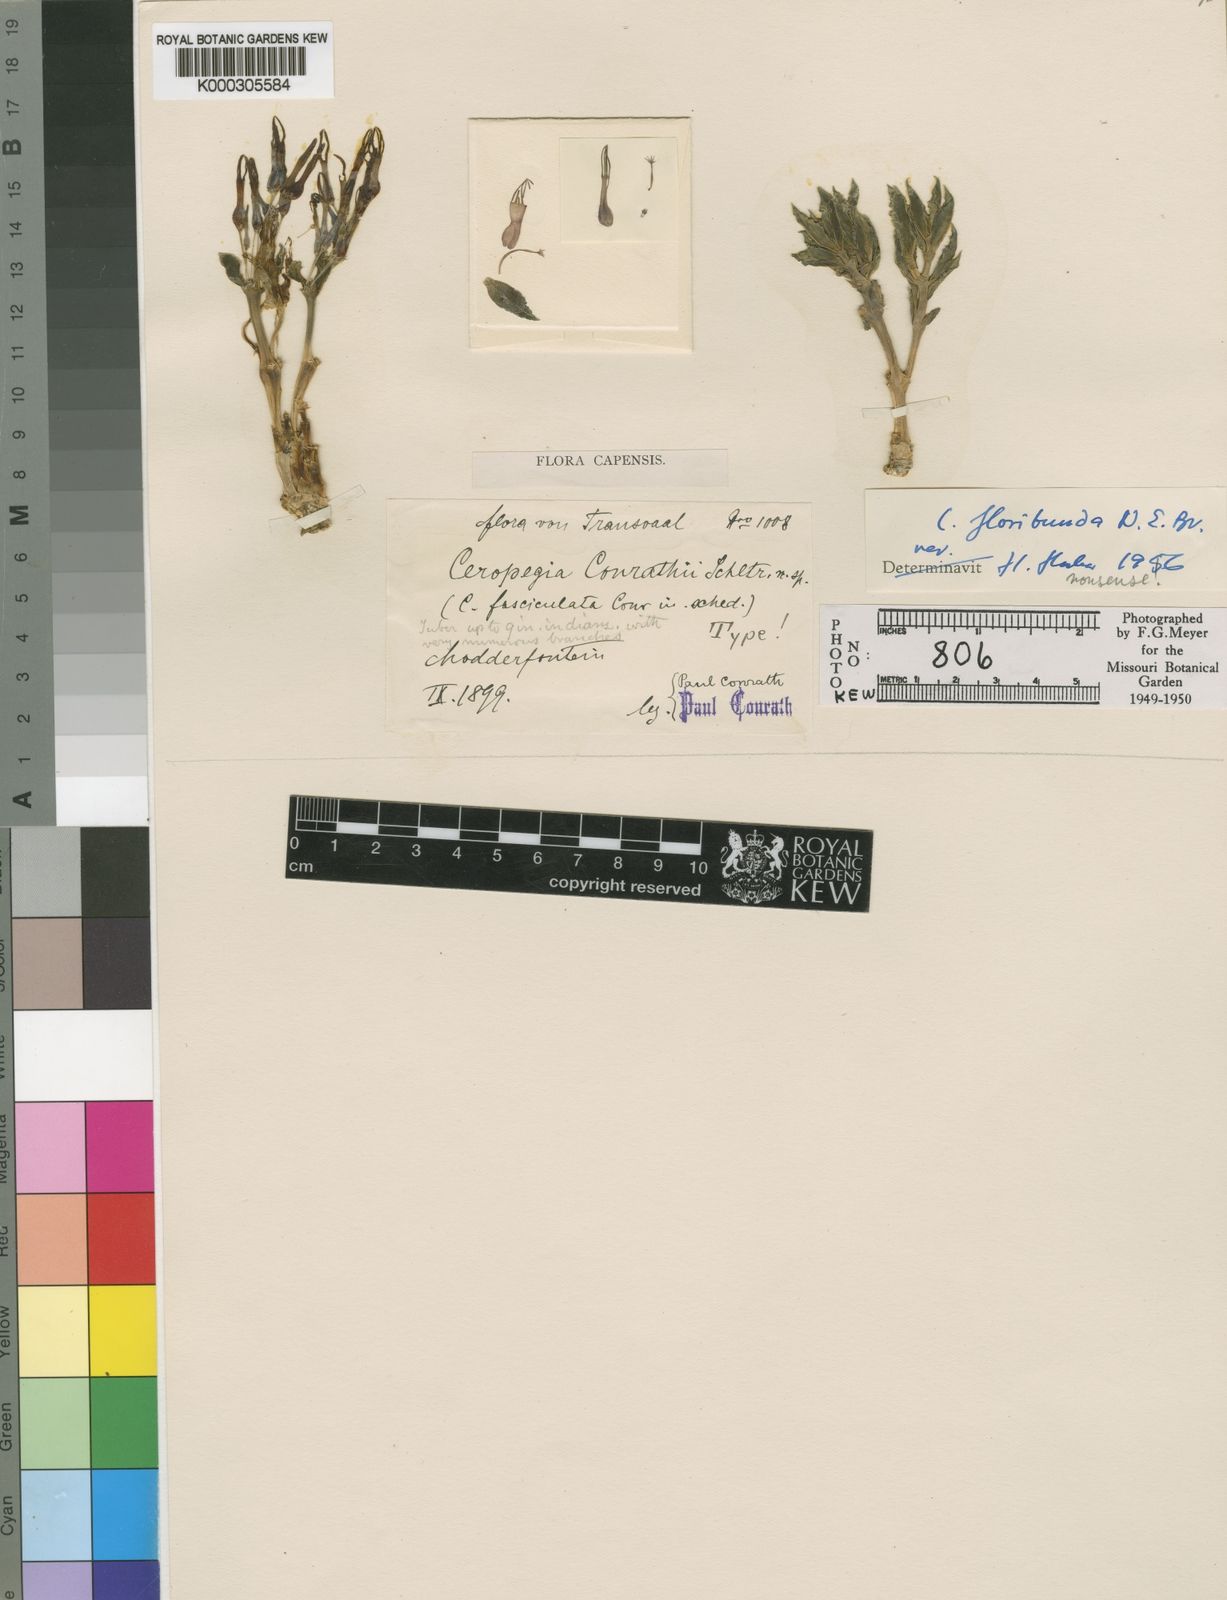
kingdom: Plantae
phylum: Tracheophyta
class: Magnoliopsida
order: Gentianales
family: Apocynaceae
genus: Ceropegia
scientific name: Ceropegia conrathii
